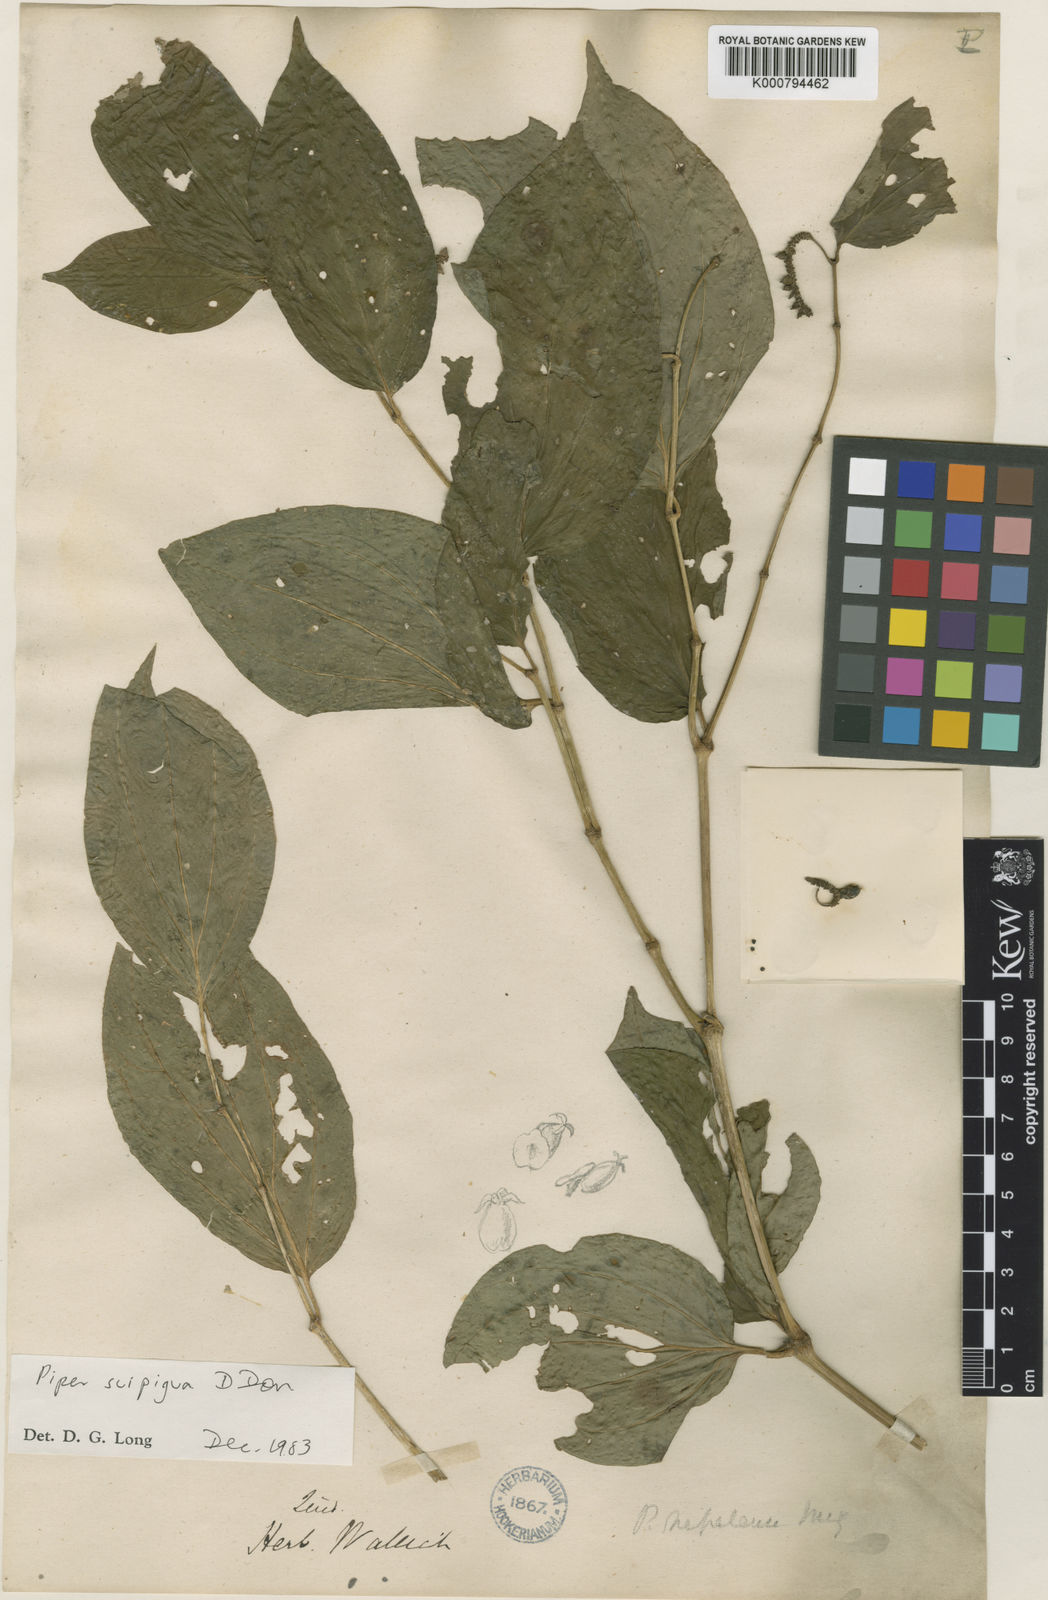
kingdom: Plantae
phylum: Tracheophyta
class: Magnoliopsida
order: Piperales
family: Piperaceae
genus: Piper
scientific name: Piper suipigua
